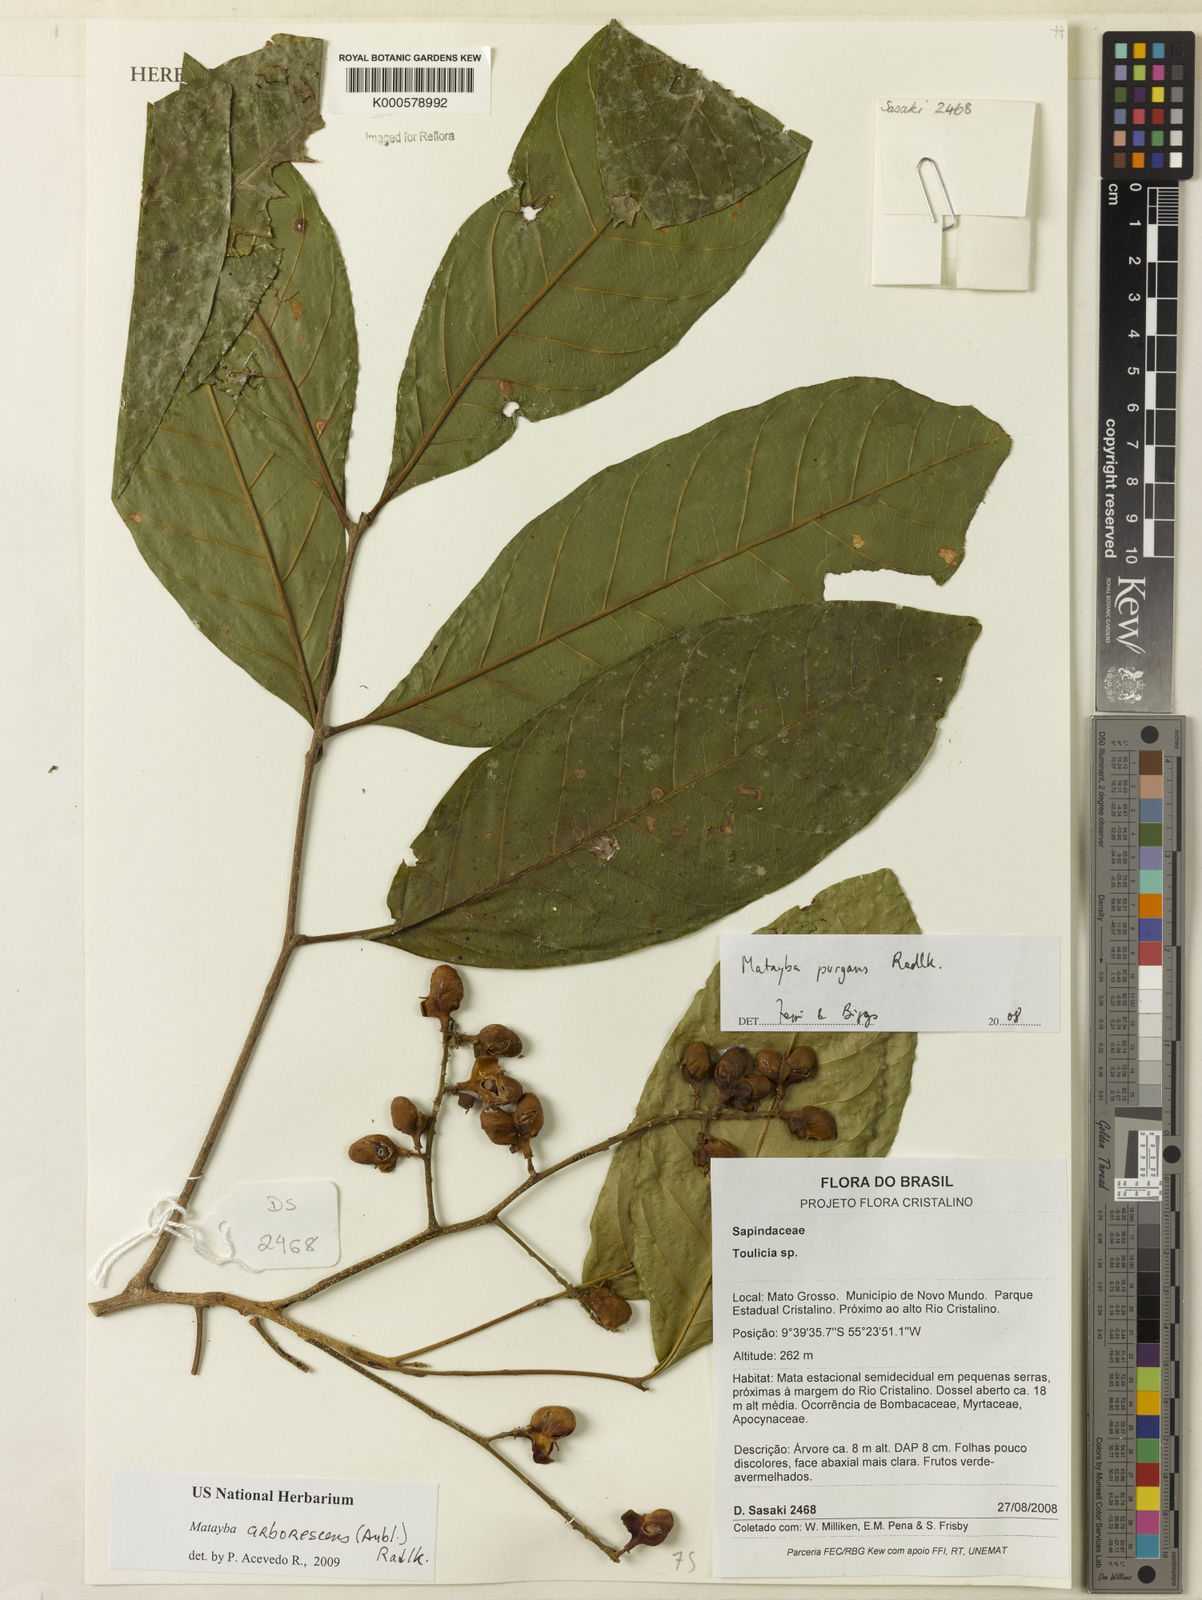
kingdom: Plantae
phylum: Tracheophyta
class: Magnoliopsida
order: Sapindales
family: Sapindaceae
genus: Matayba
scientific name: Matayba arborescens
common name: Arborescent matayba
